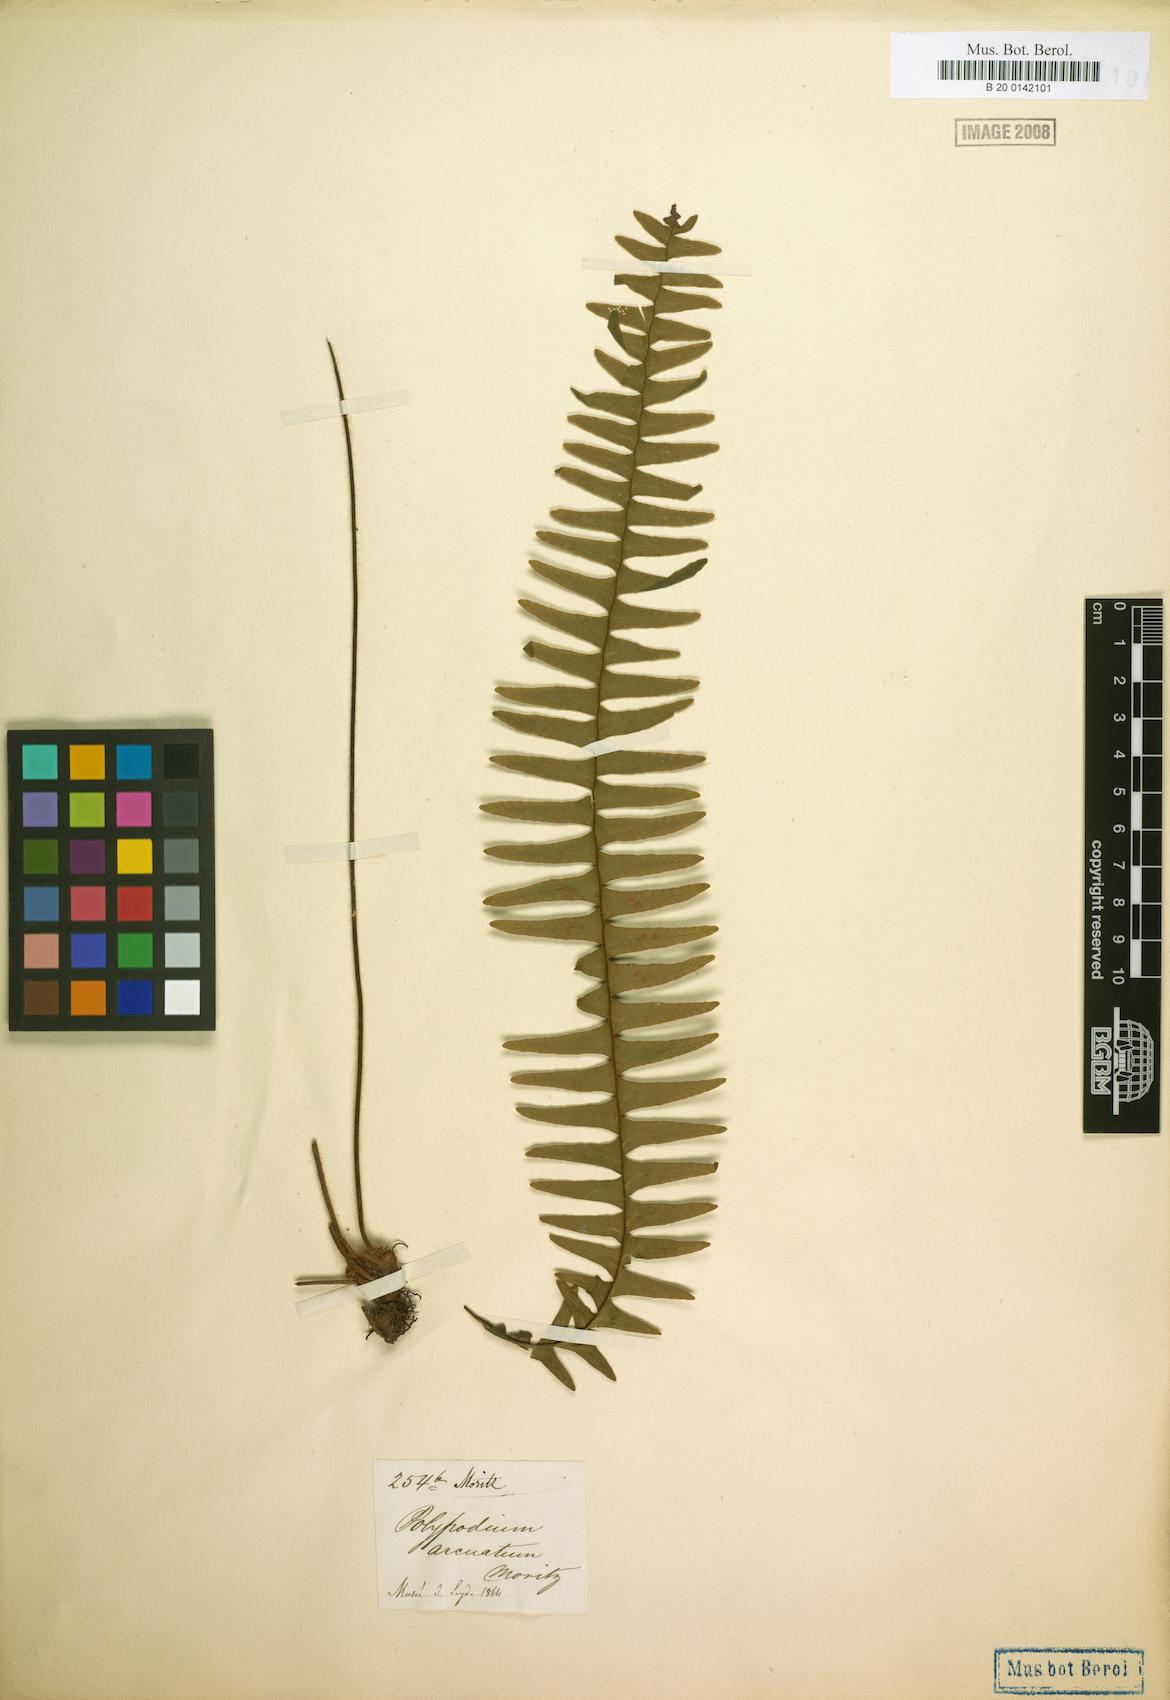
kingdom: Plantae
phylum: Tracheophyta
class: Polypodiopsida
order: Polypodiales
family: Polypodiaceae
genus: Terpsichore
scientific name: Terpsichore chrysleri
